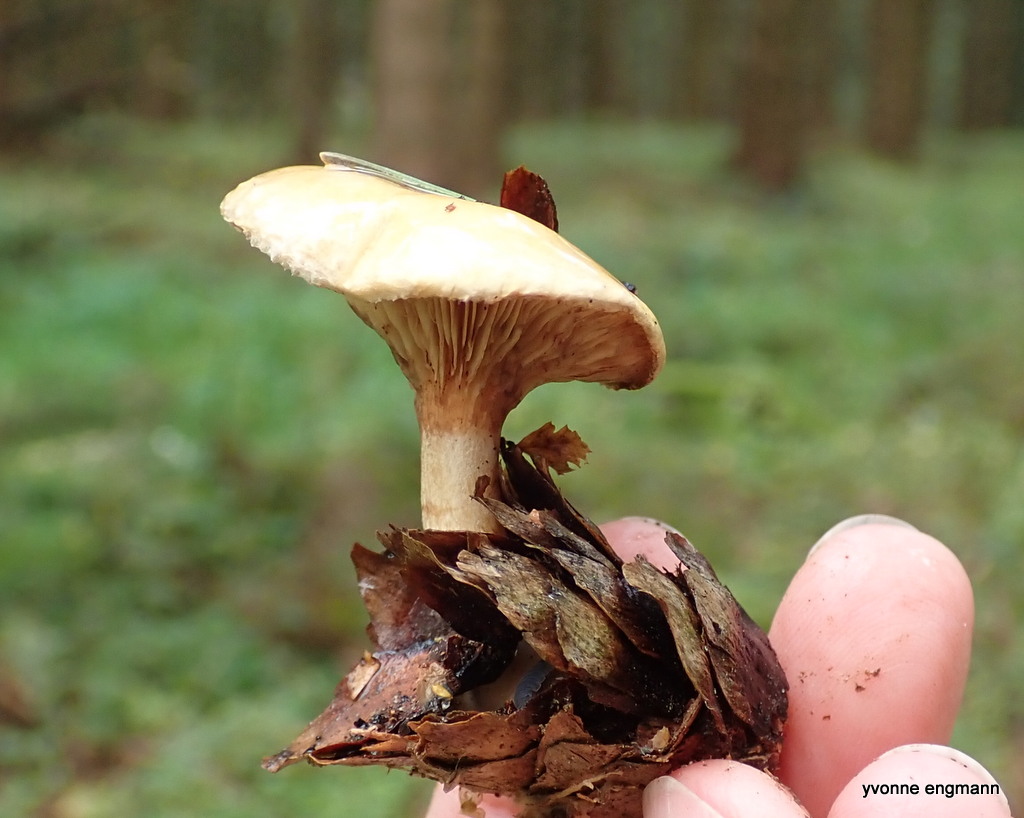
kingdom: Fungi
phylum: Basidiomycota
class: Agaricomycetes
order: Boletales
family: Paxillaceae
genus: Paxillus
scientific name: Paxillus involutus
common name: almindelig netbladhat
